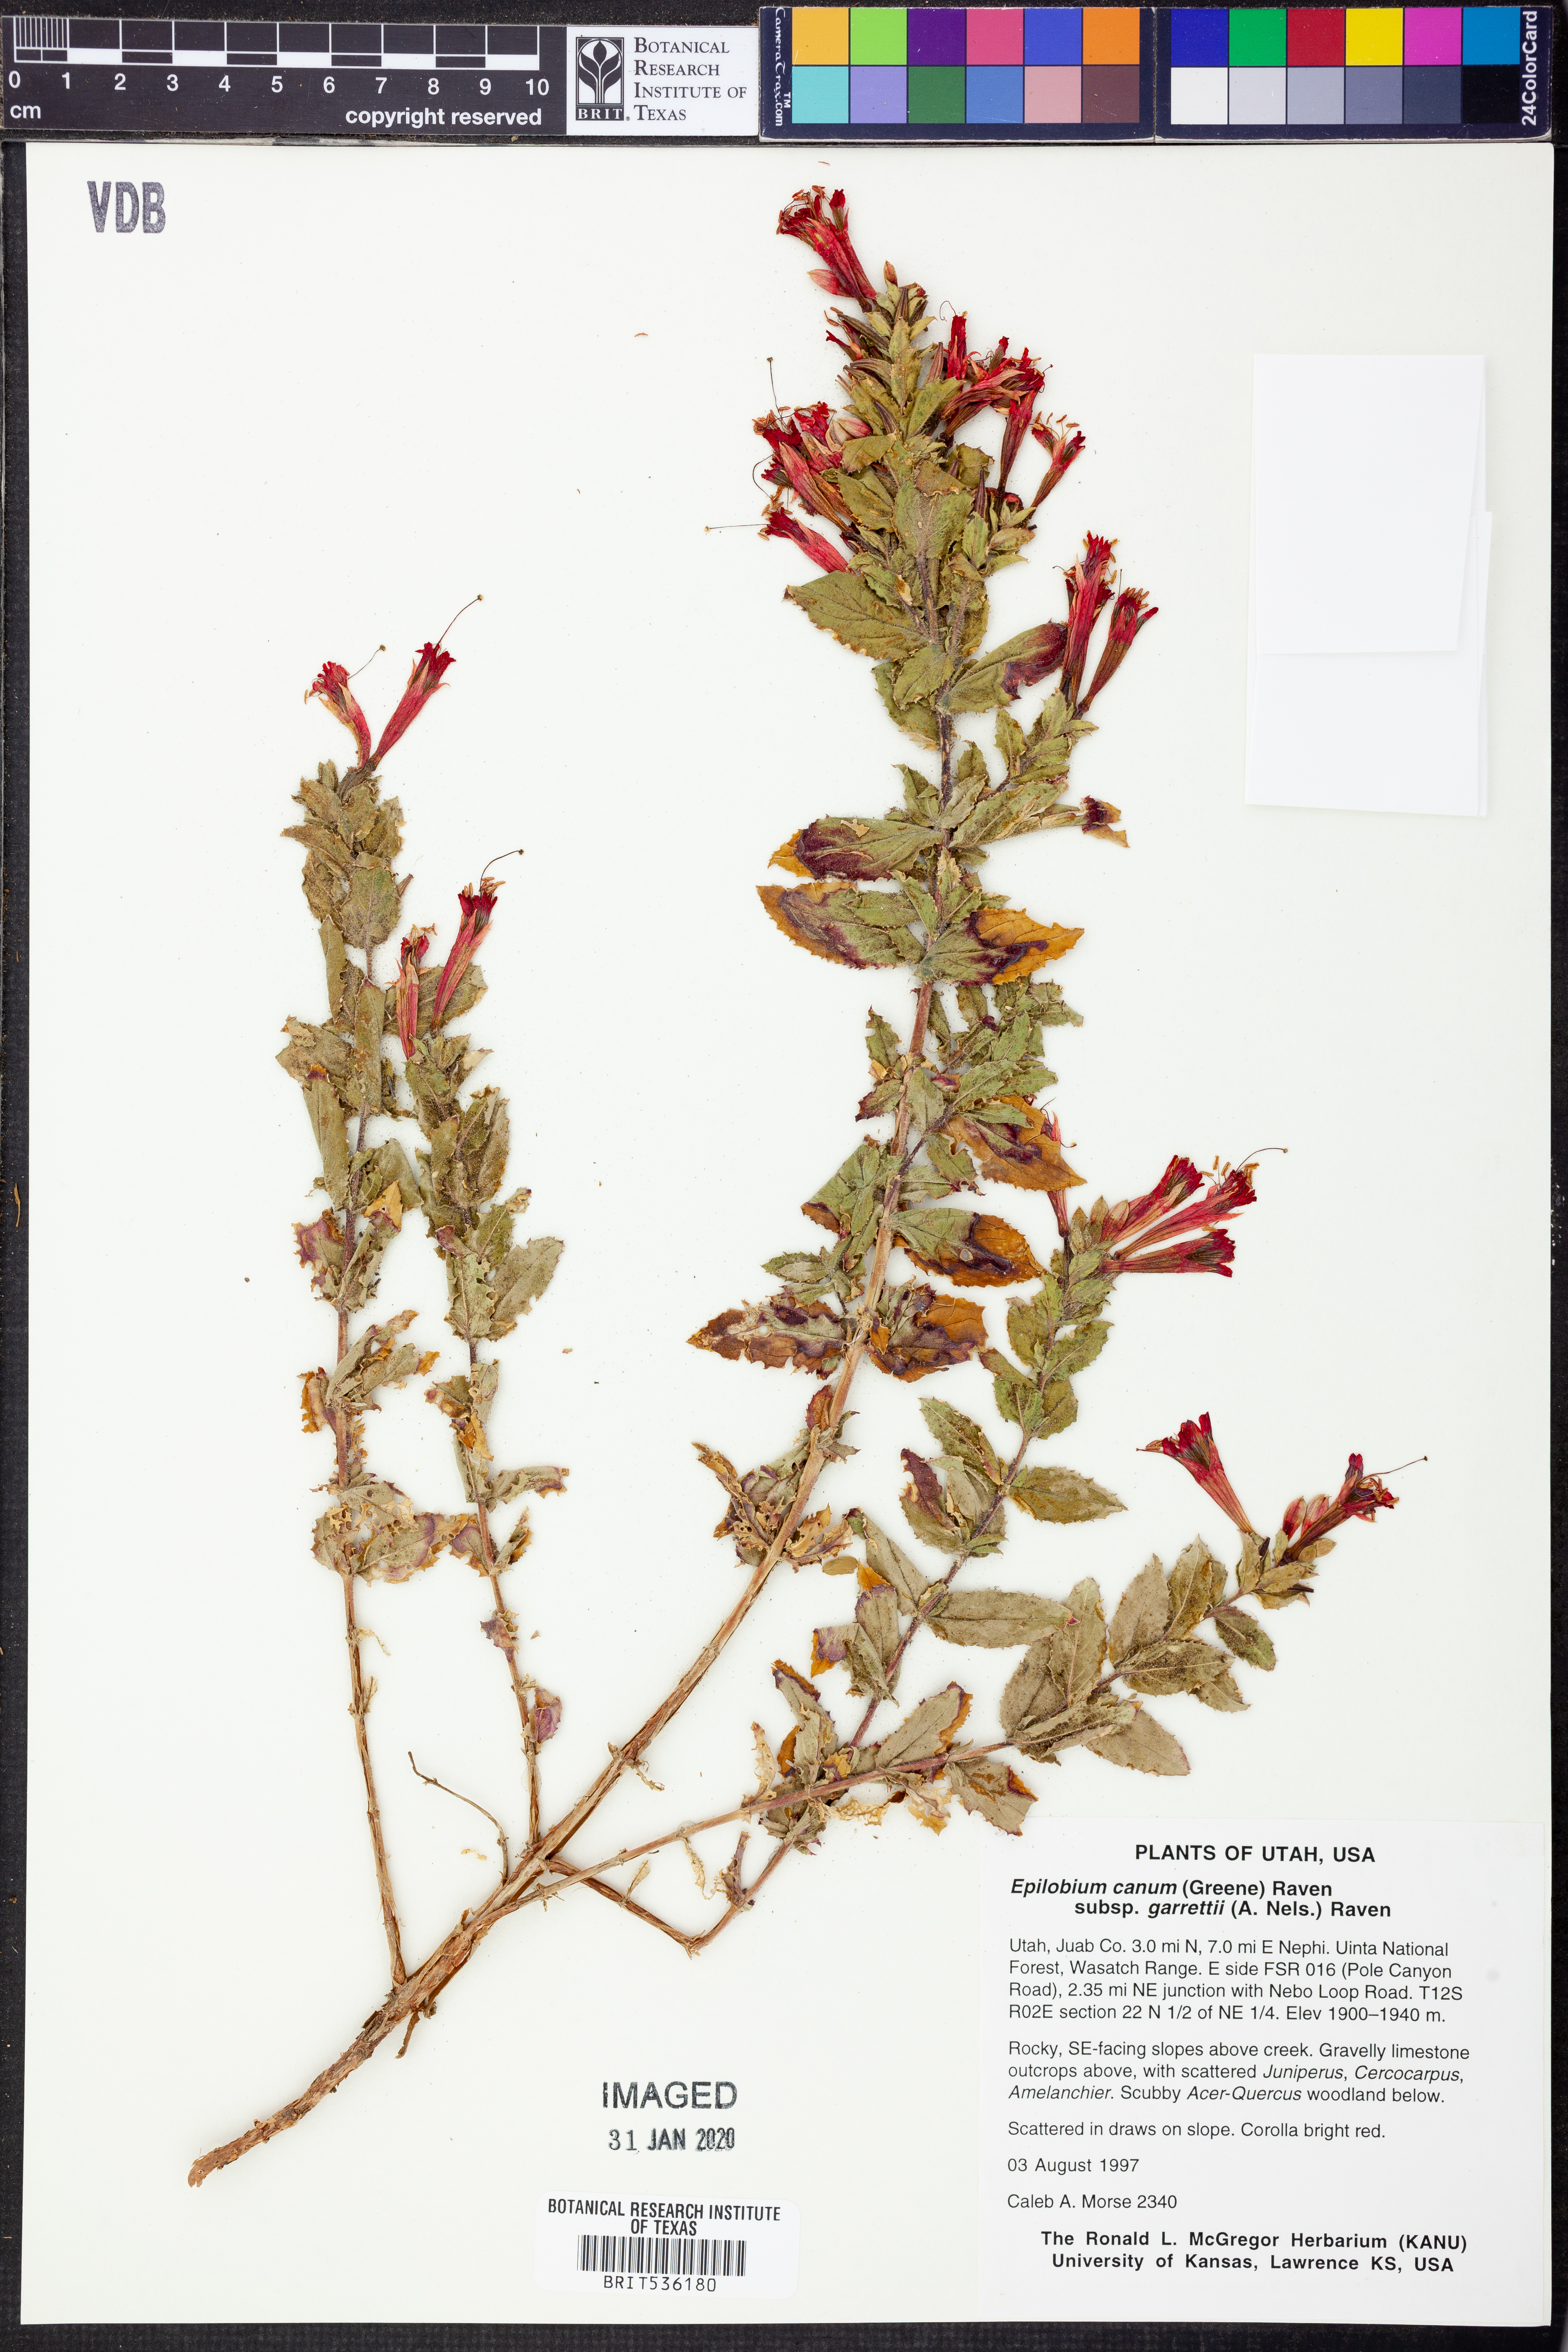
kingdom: Plantae
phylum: Tracheophyta
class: Magnoliopsida
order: Myrtales
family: Onagraceae
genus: Epilobium
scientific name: Epilobium canum
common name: California-fuchsia
